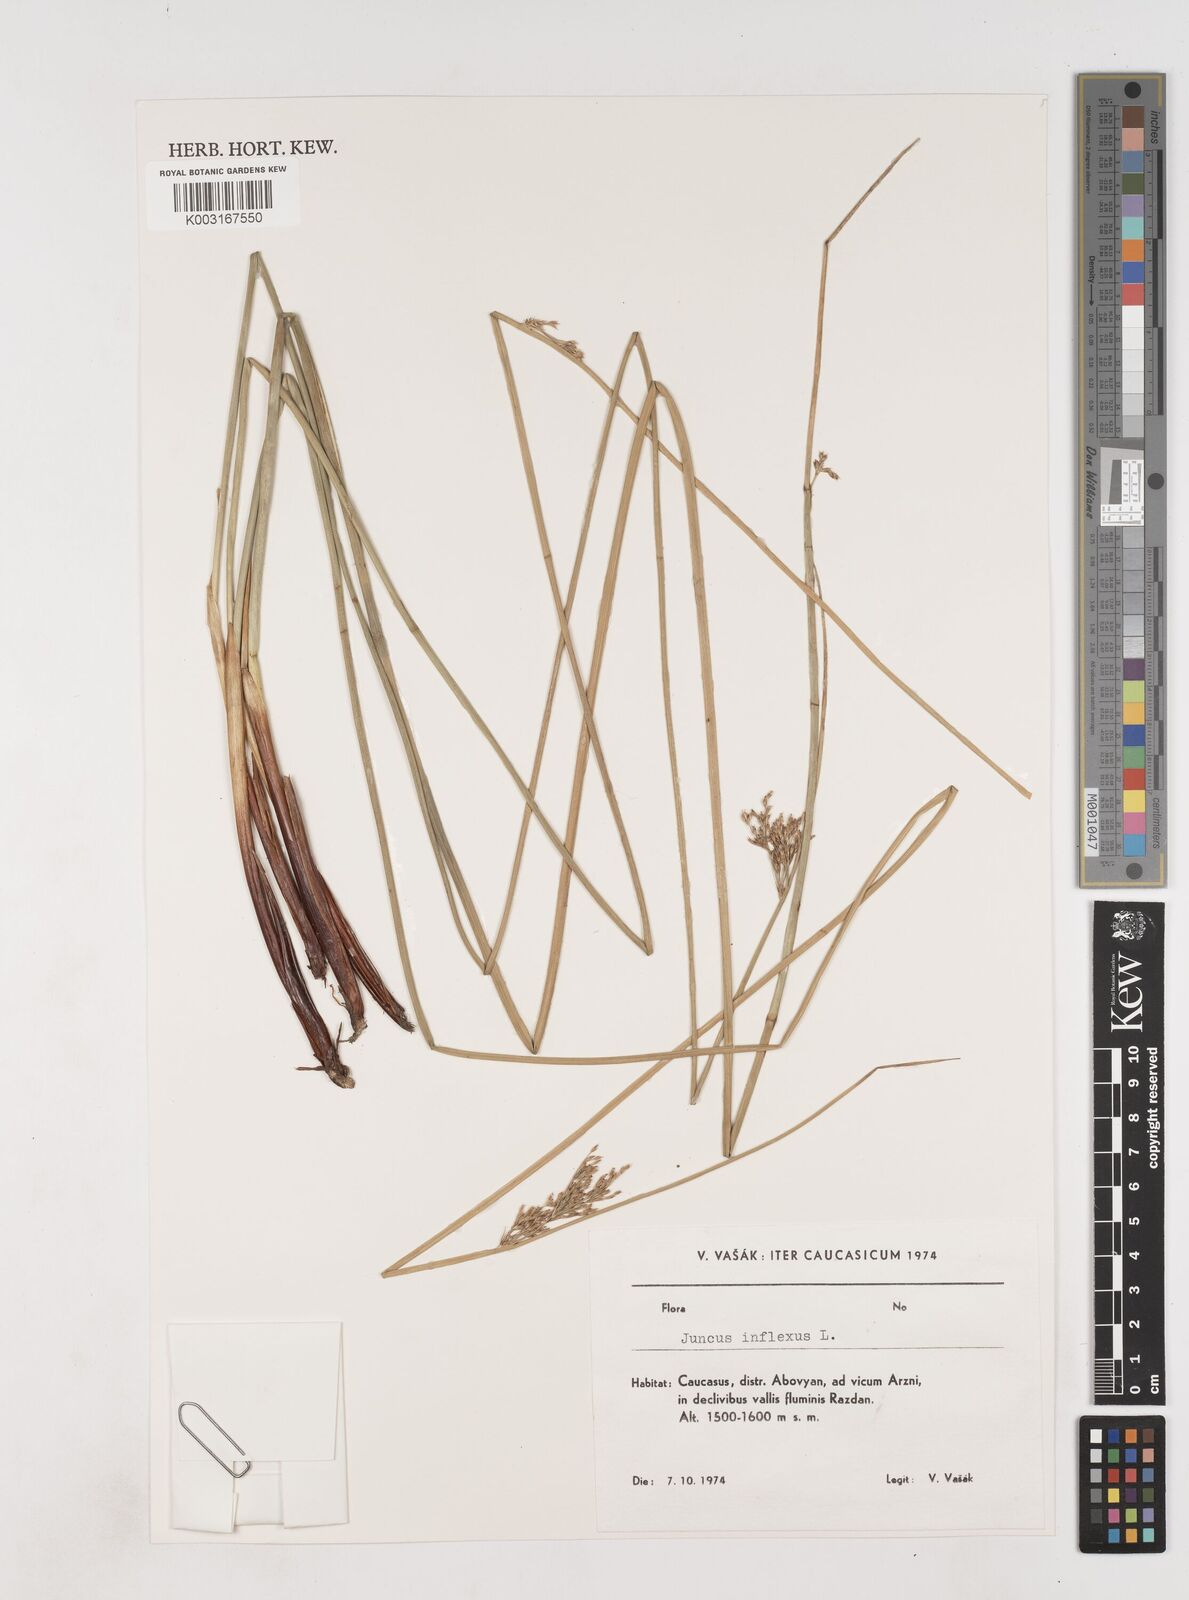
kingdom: Plantae
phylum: Tracheophyta
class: Liliopsida
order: Poales
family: Juncaceae
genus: Juncus
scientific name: Juncus inflexus
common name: Hard rush
